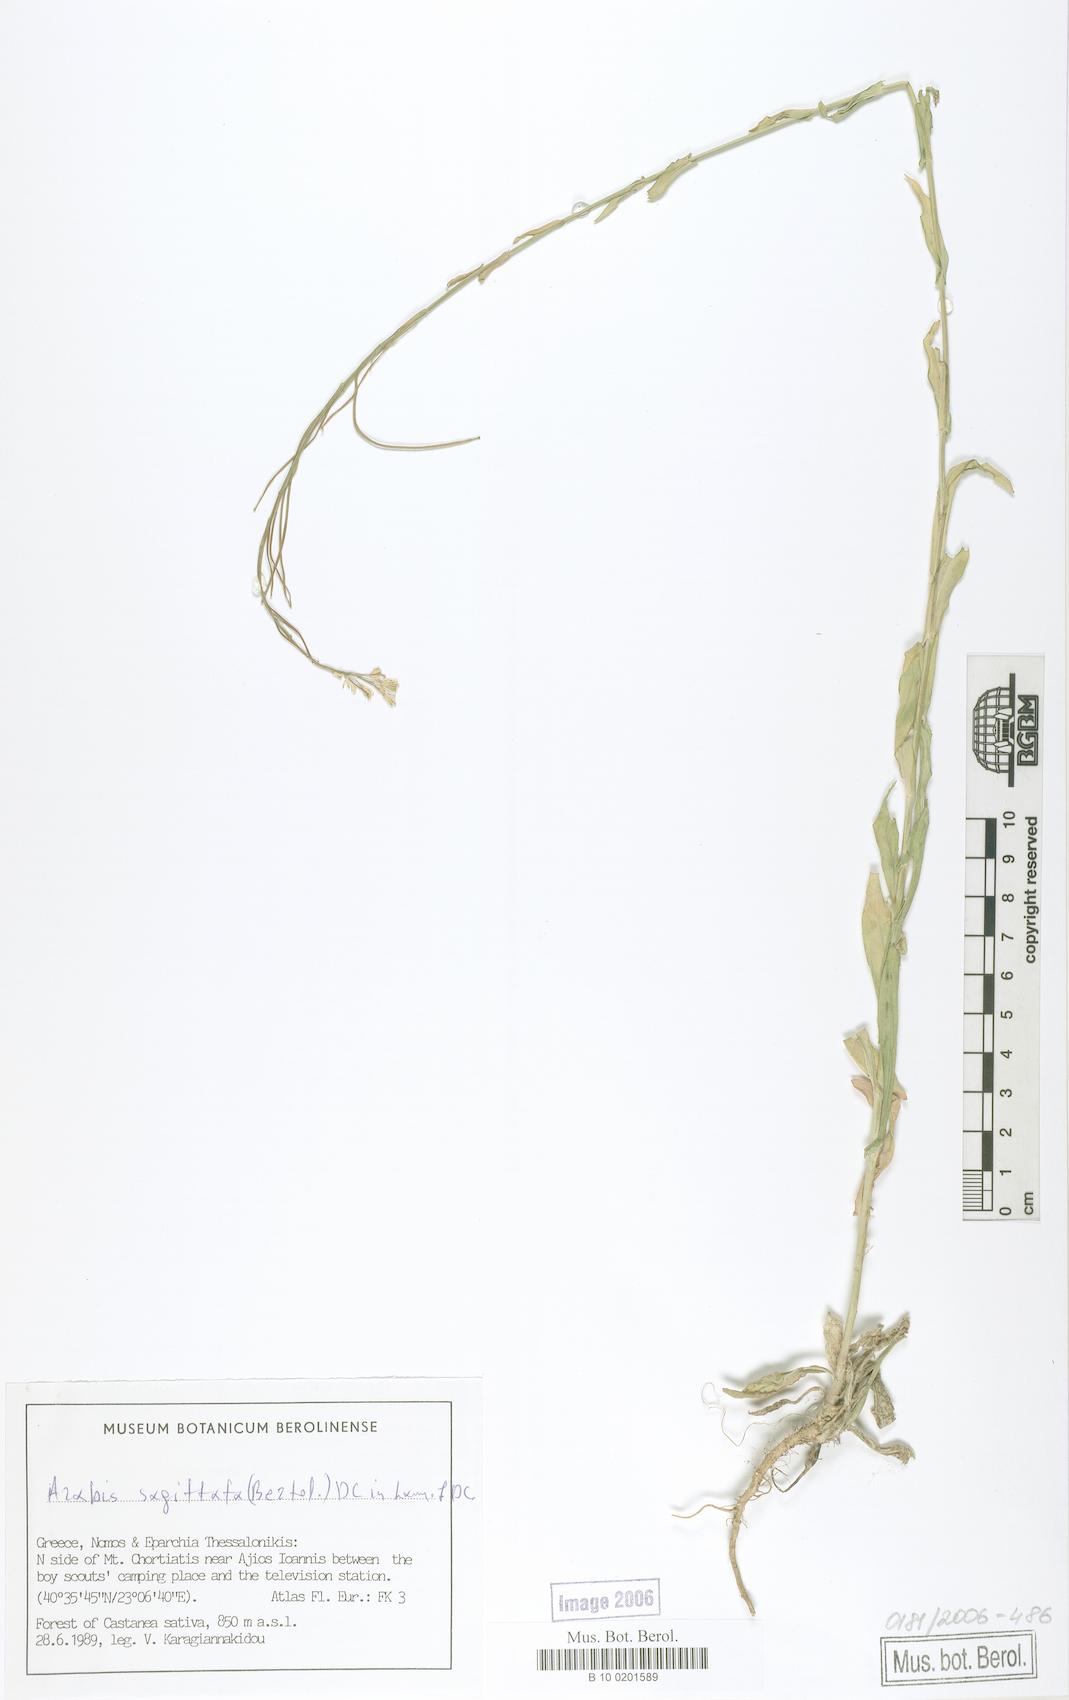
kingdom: Plantae
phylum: Tracheophyta
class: Magnoliopsida
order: Brassicales
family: Brassicaceae
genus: Arabis
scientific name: Arabis sagittata
